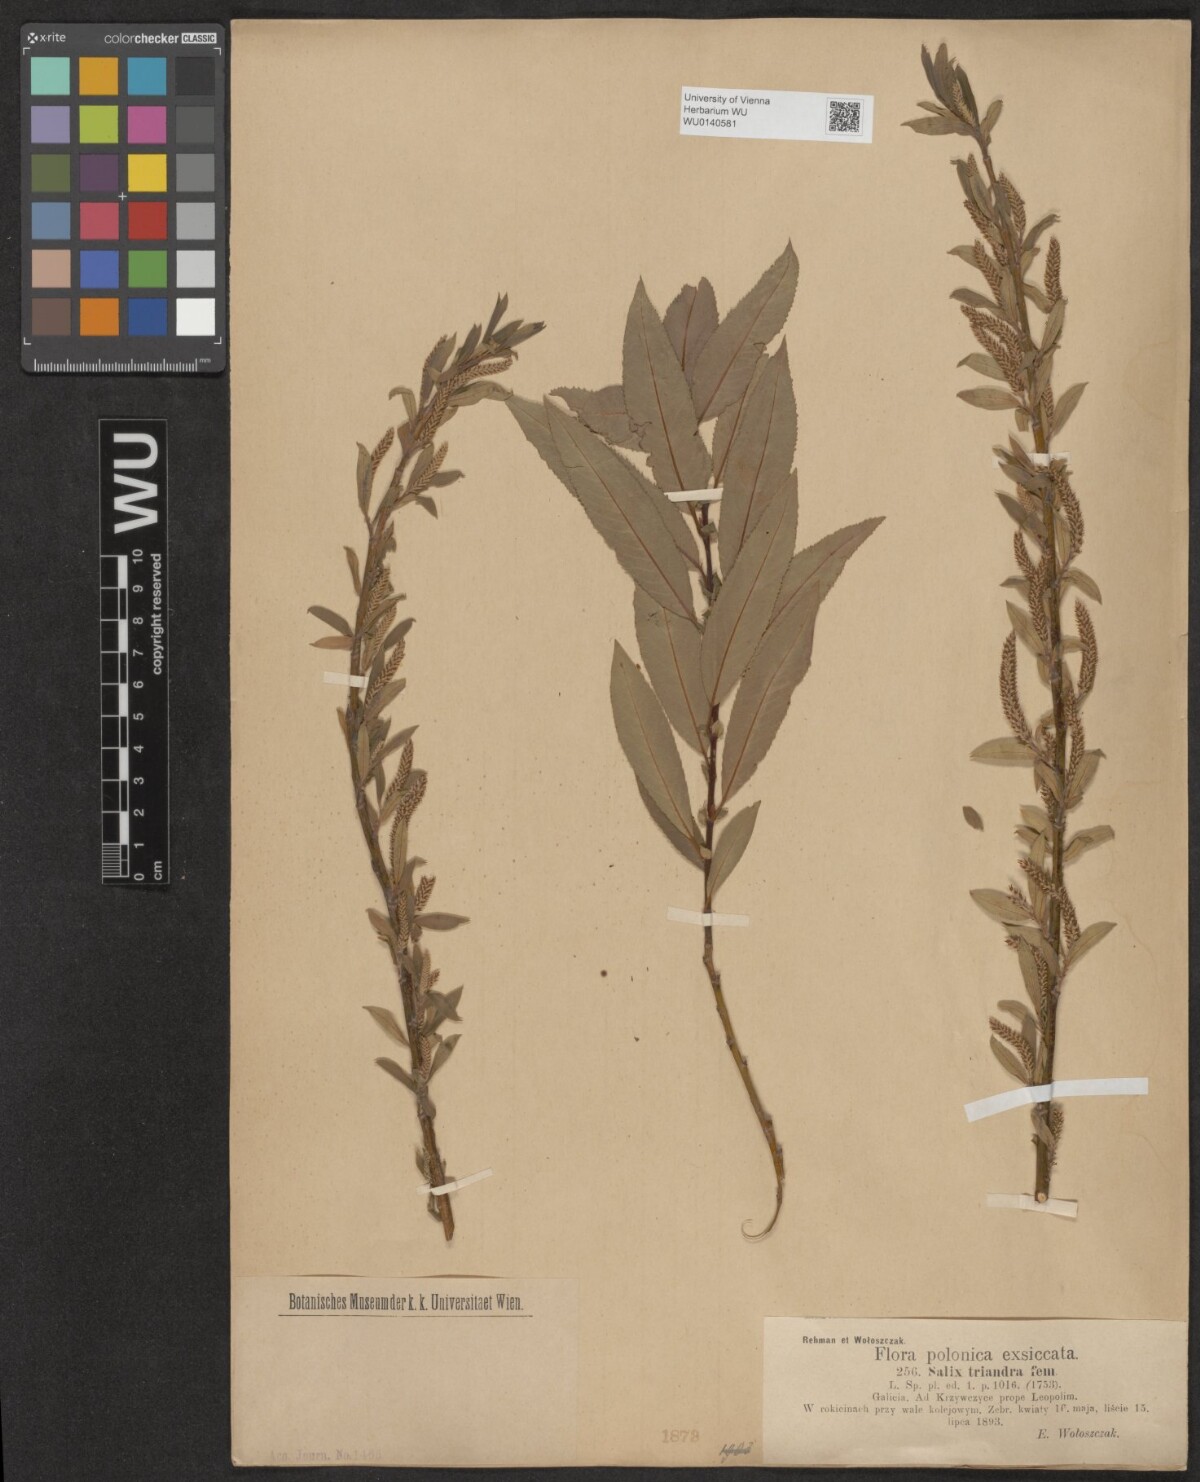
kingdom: Plantae
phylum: Tracheophyta
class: Magnoliopsida
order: Malpighiales
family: Salicaceae
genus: Salix
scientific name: Salix triandra
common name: Almond willow
